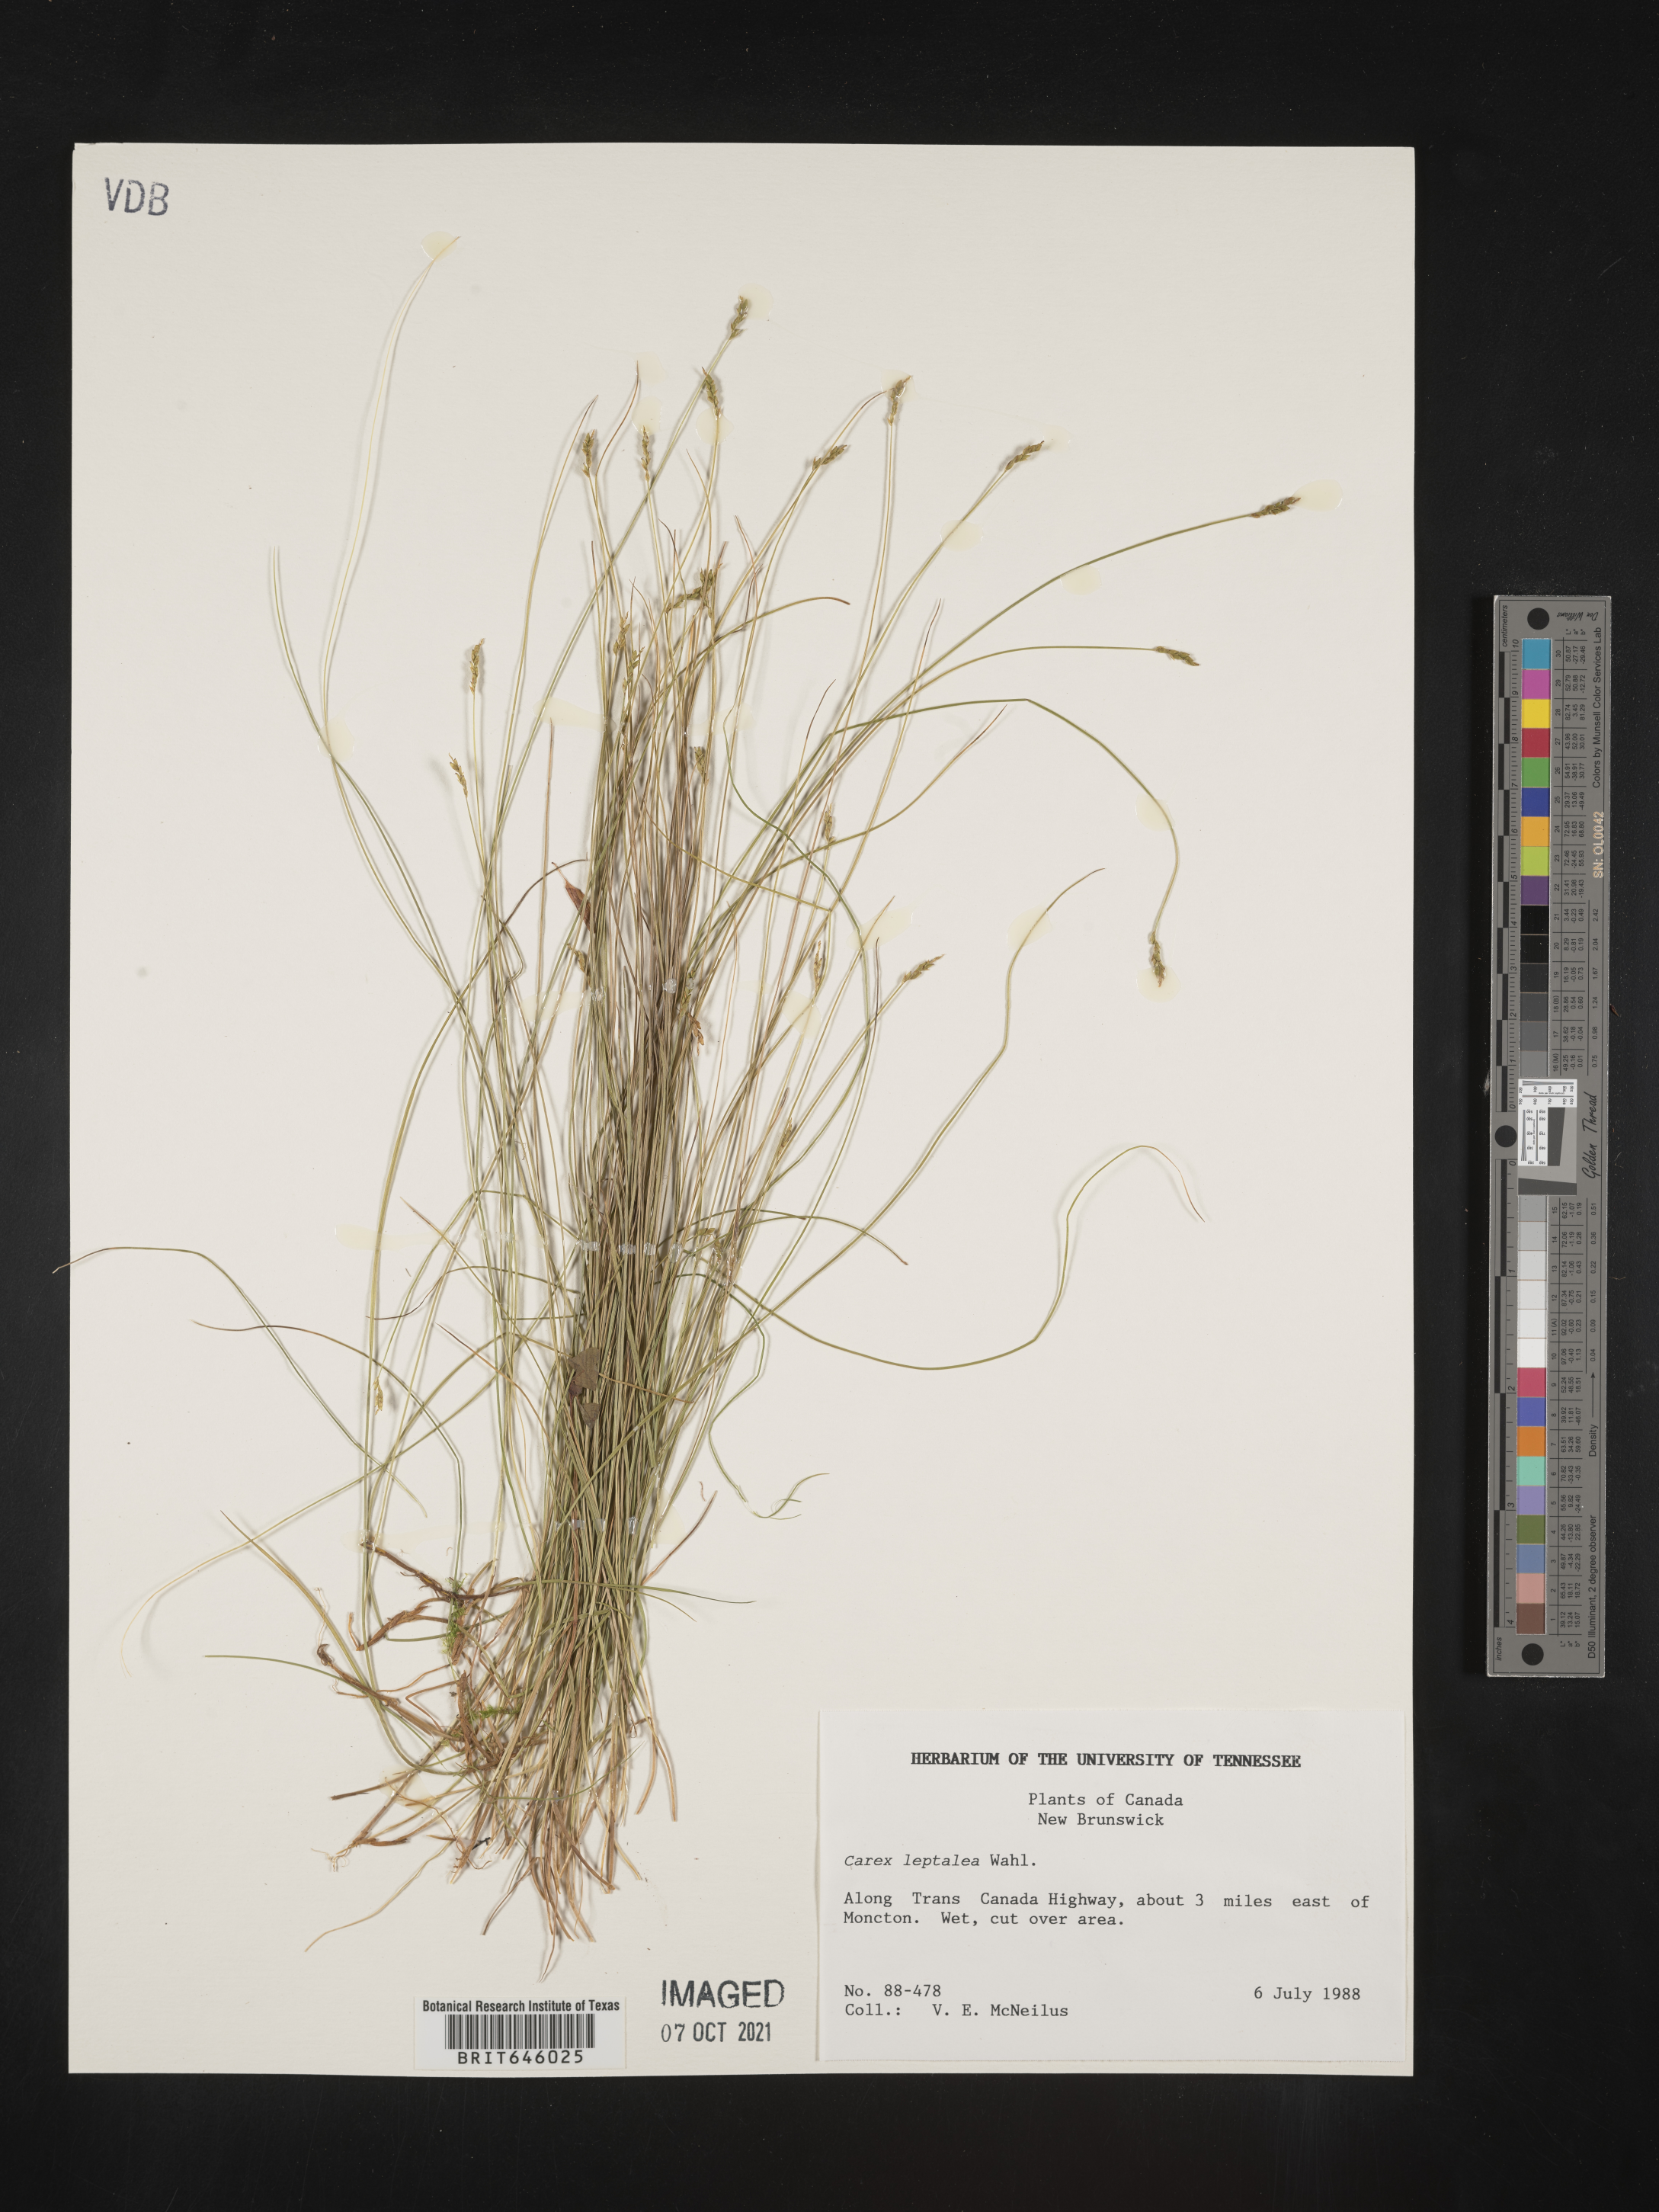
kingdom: Plantae
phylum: Tracheophyta
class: Liliopsida
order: Poales
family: Cyperaceae
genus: Carex
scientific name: Carex leptalea
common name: Bristly-stalked sedge
